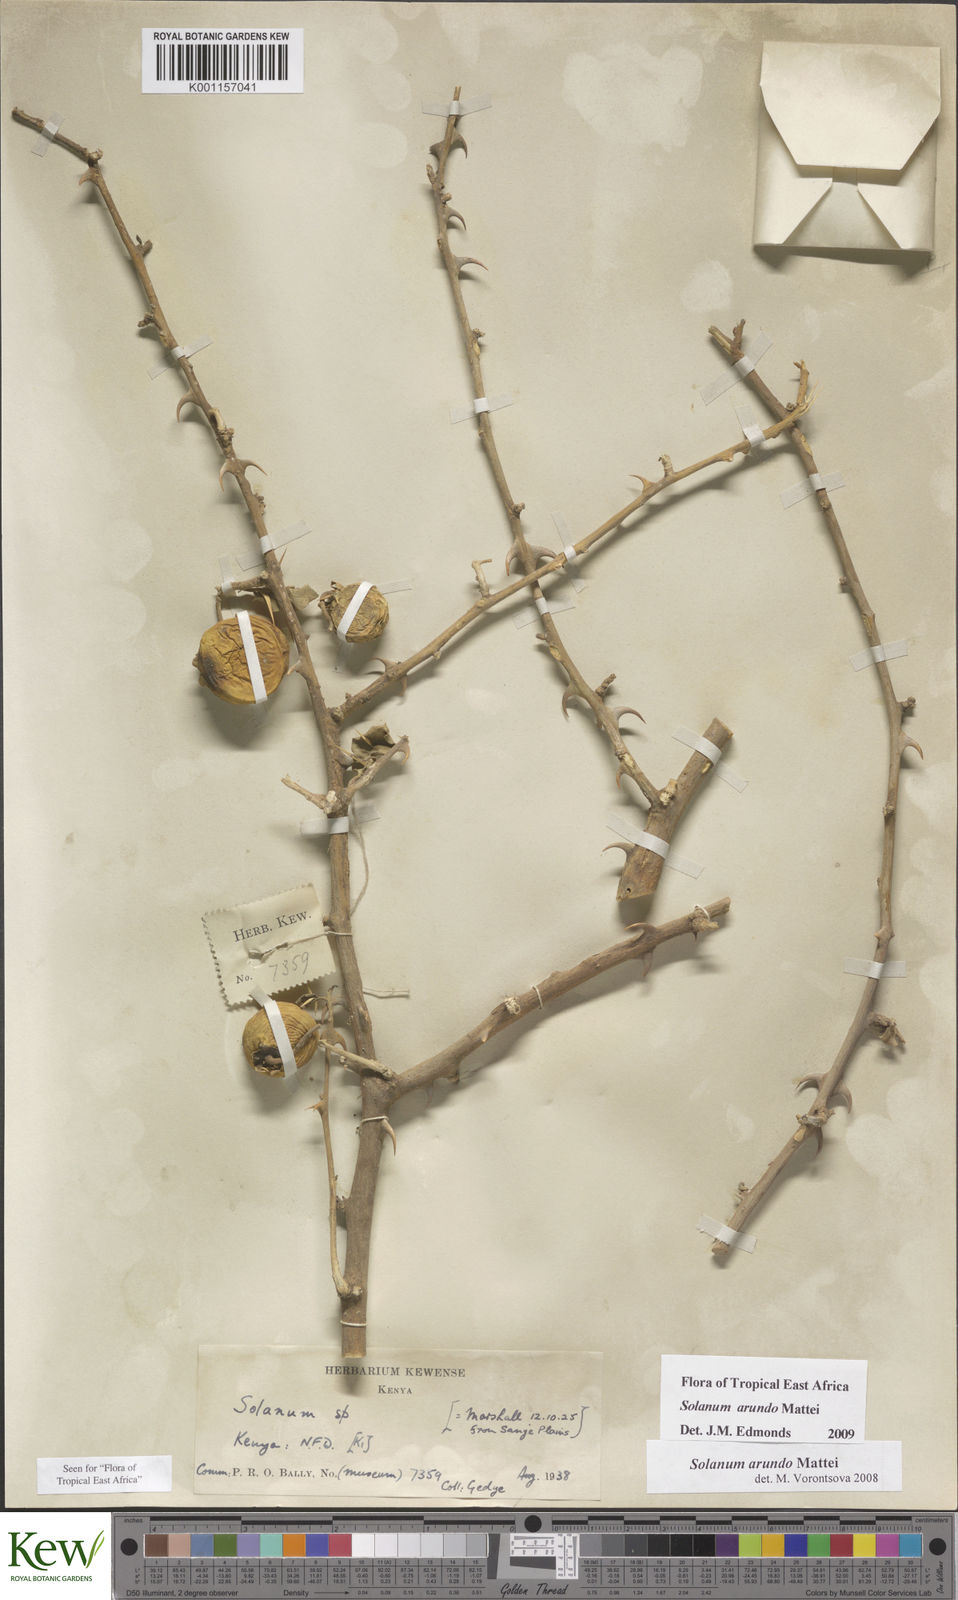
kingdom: Plantae
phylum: Tracheophyta
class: Magnoliopsida
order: Solanales
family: Solanaceae
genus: Solanum
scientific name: Solanum arundo
